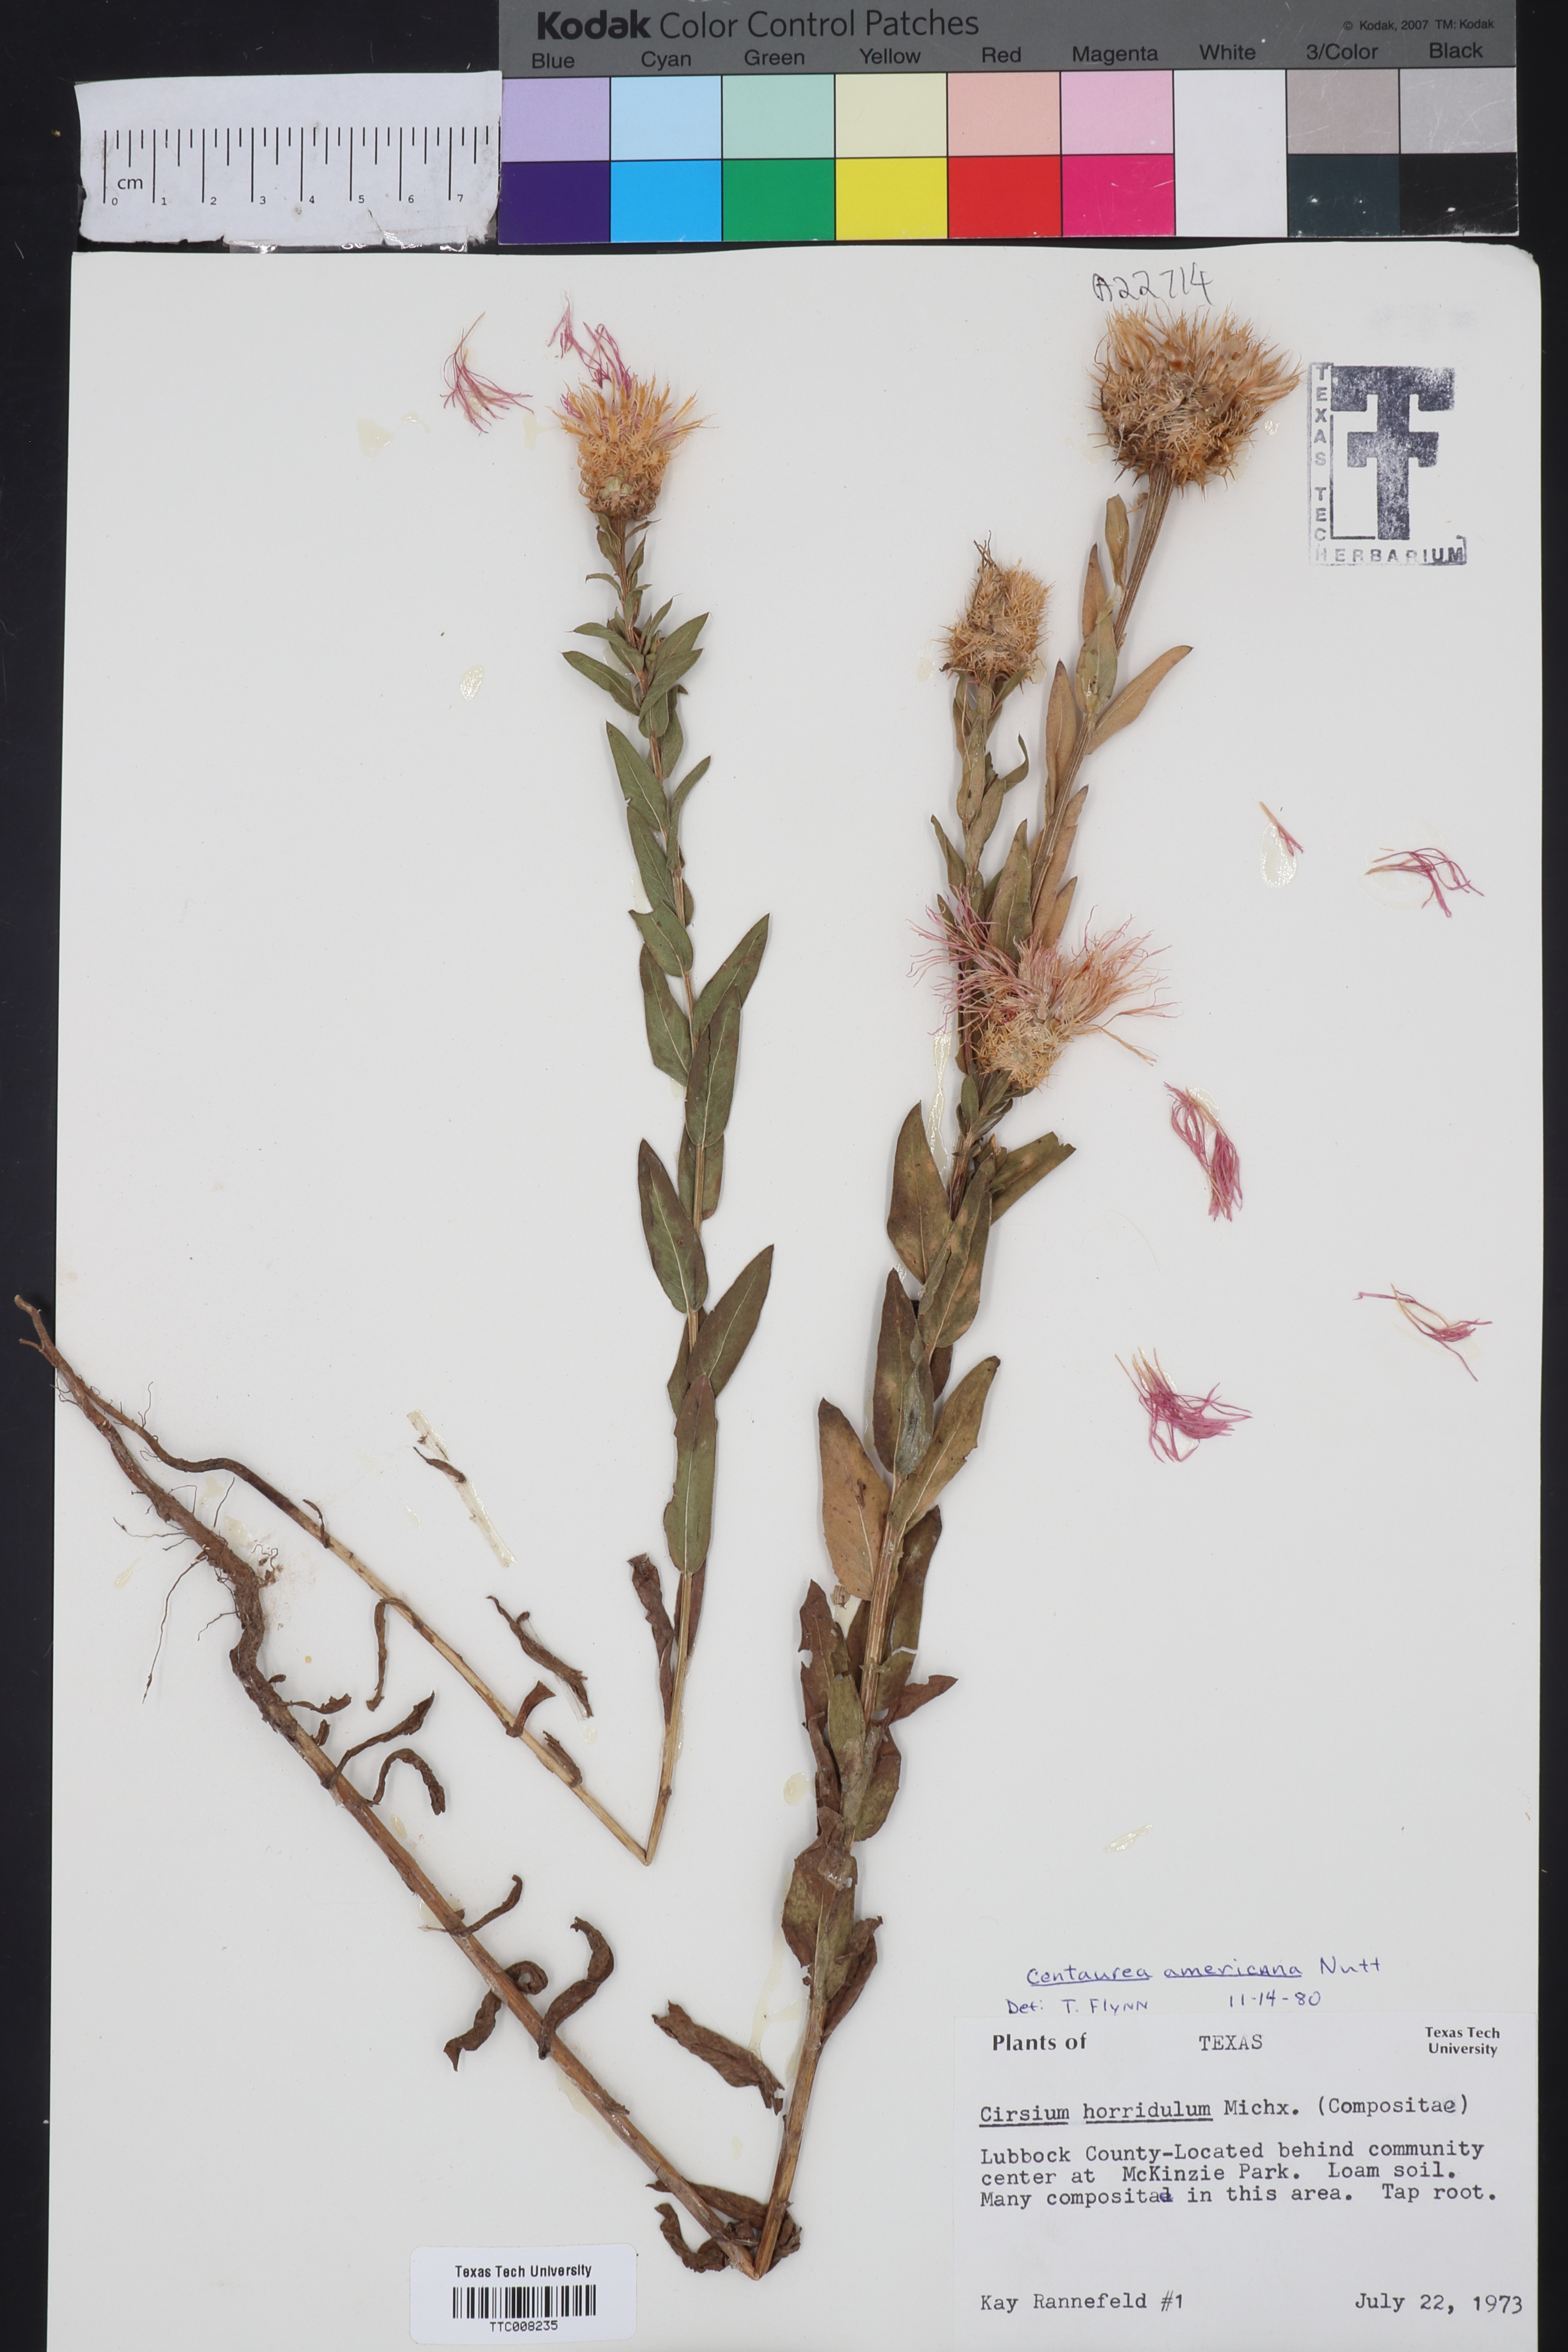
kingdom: Plantae
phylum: Tracheophyta
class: Magnoliopsida
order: Asterales
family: Asteraceae
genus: Plectocephalus
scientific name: Plectocephalus americanus
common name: American basket-flower
